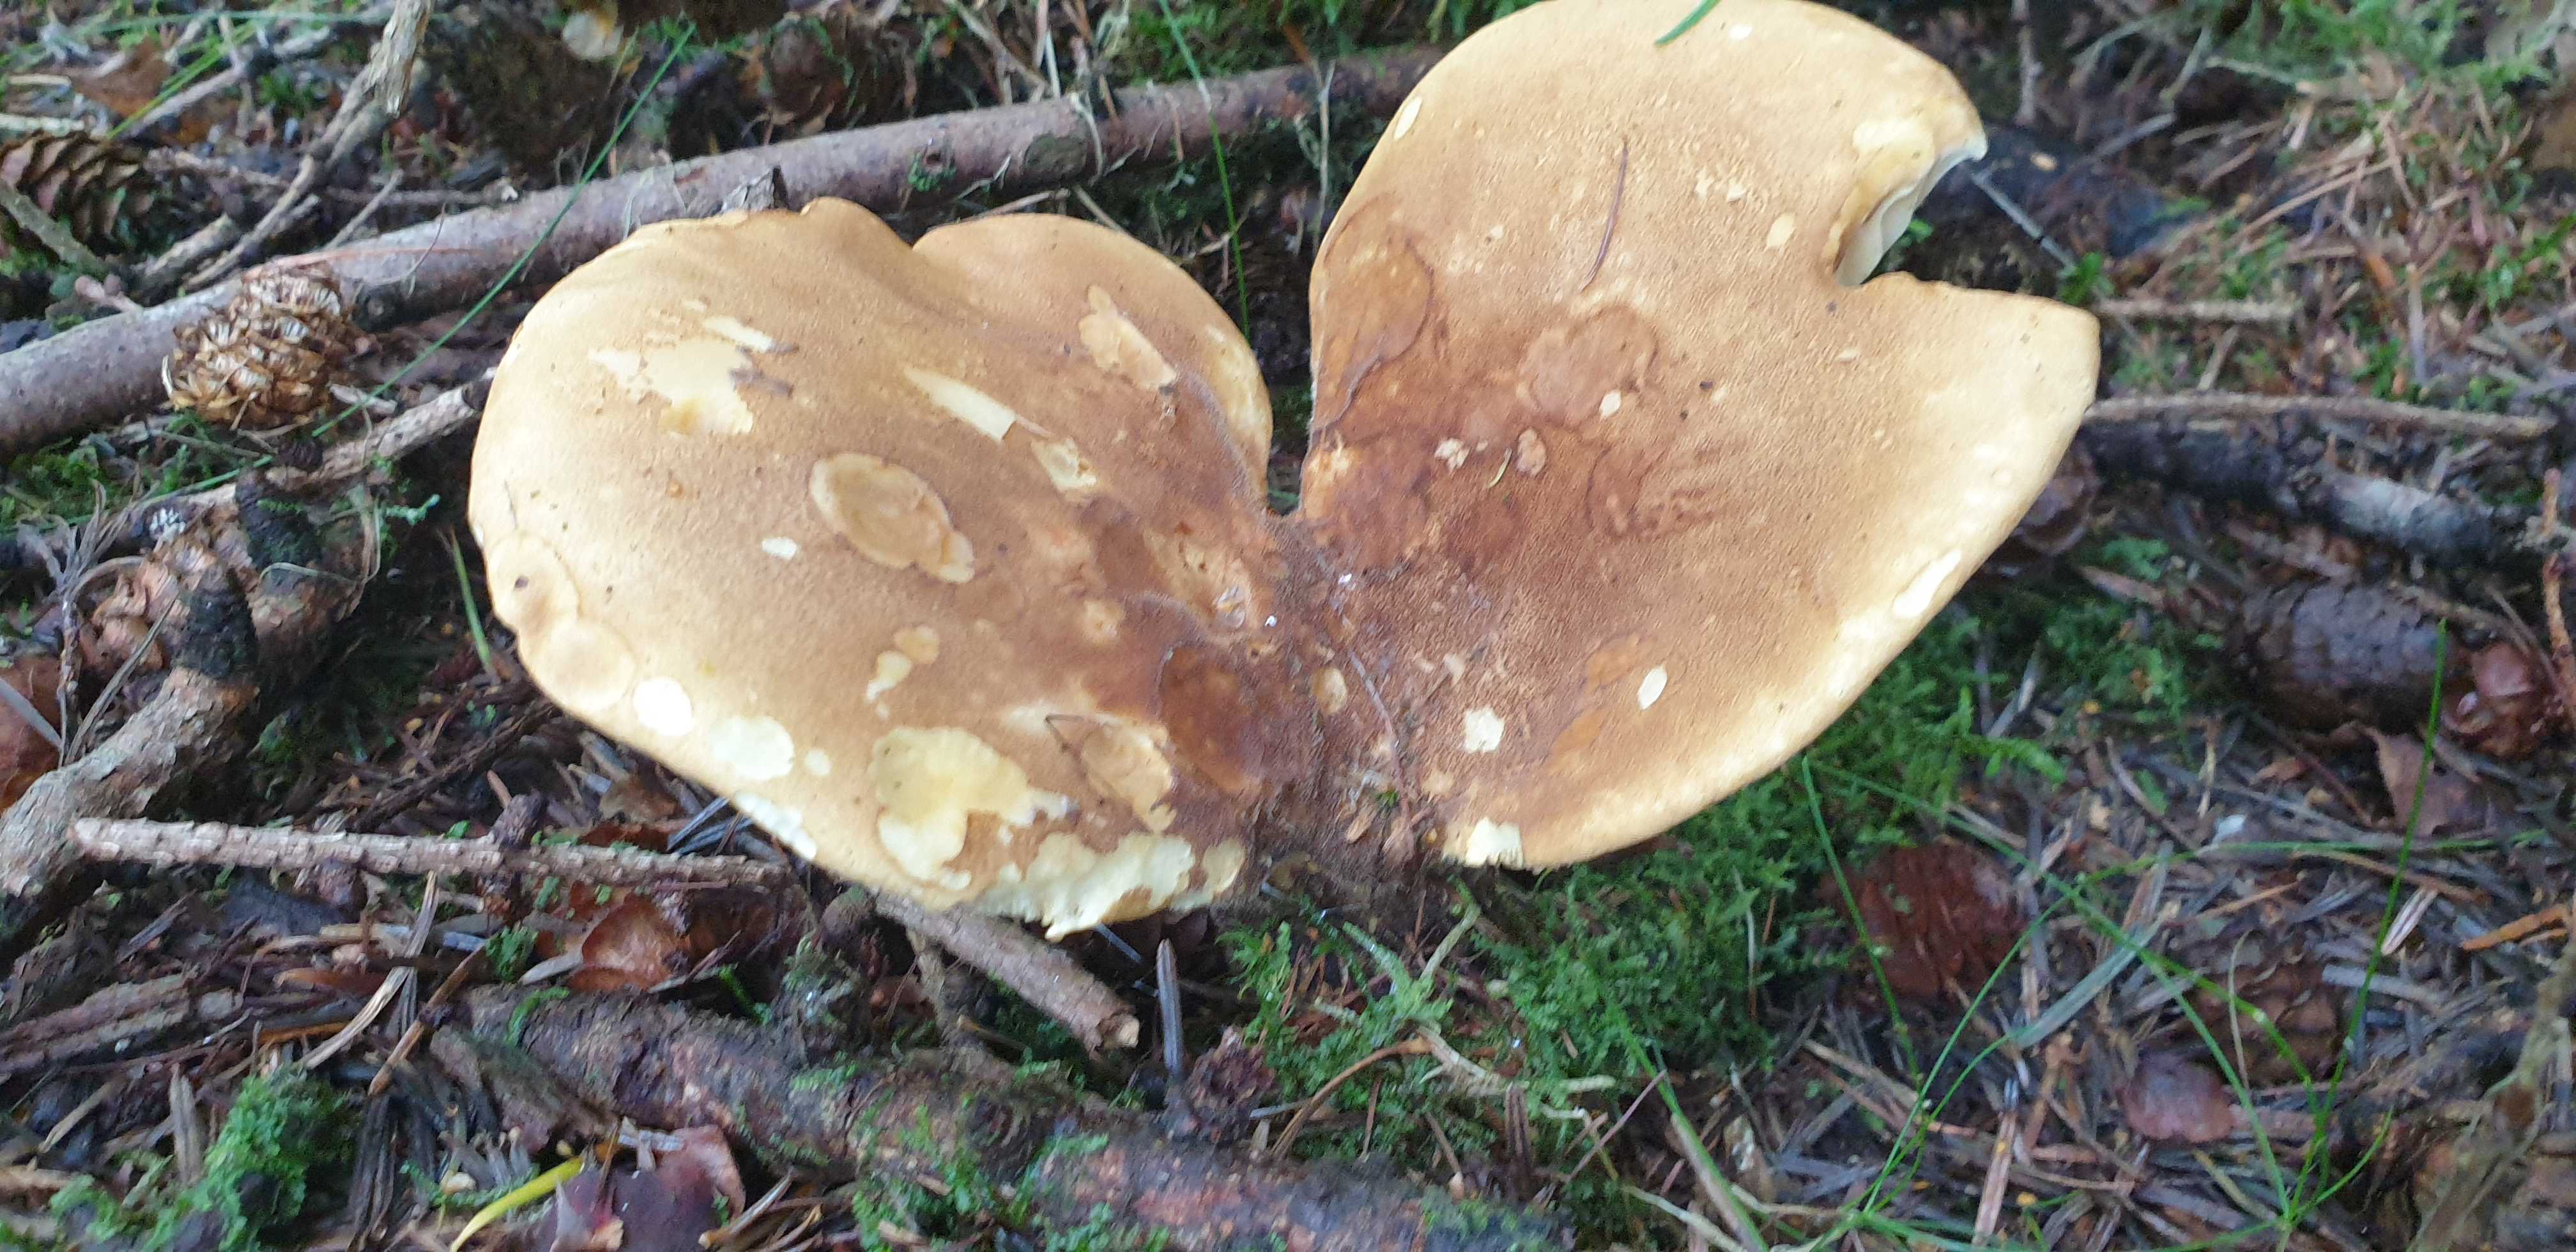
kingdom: Fungi
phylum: Basidiomycota
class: Agaricomycetes
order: Boletales
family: Tapinellaceae
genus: Tapinella
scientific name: Tapinella atrotomentosa
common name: sortfiltet viftesvamp
